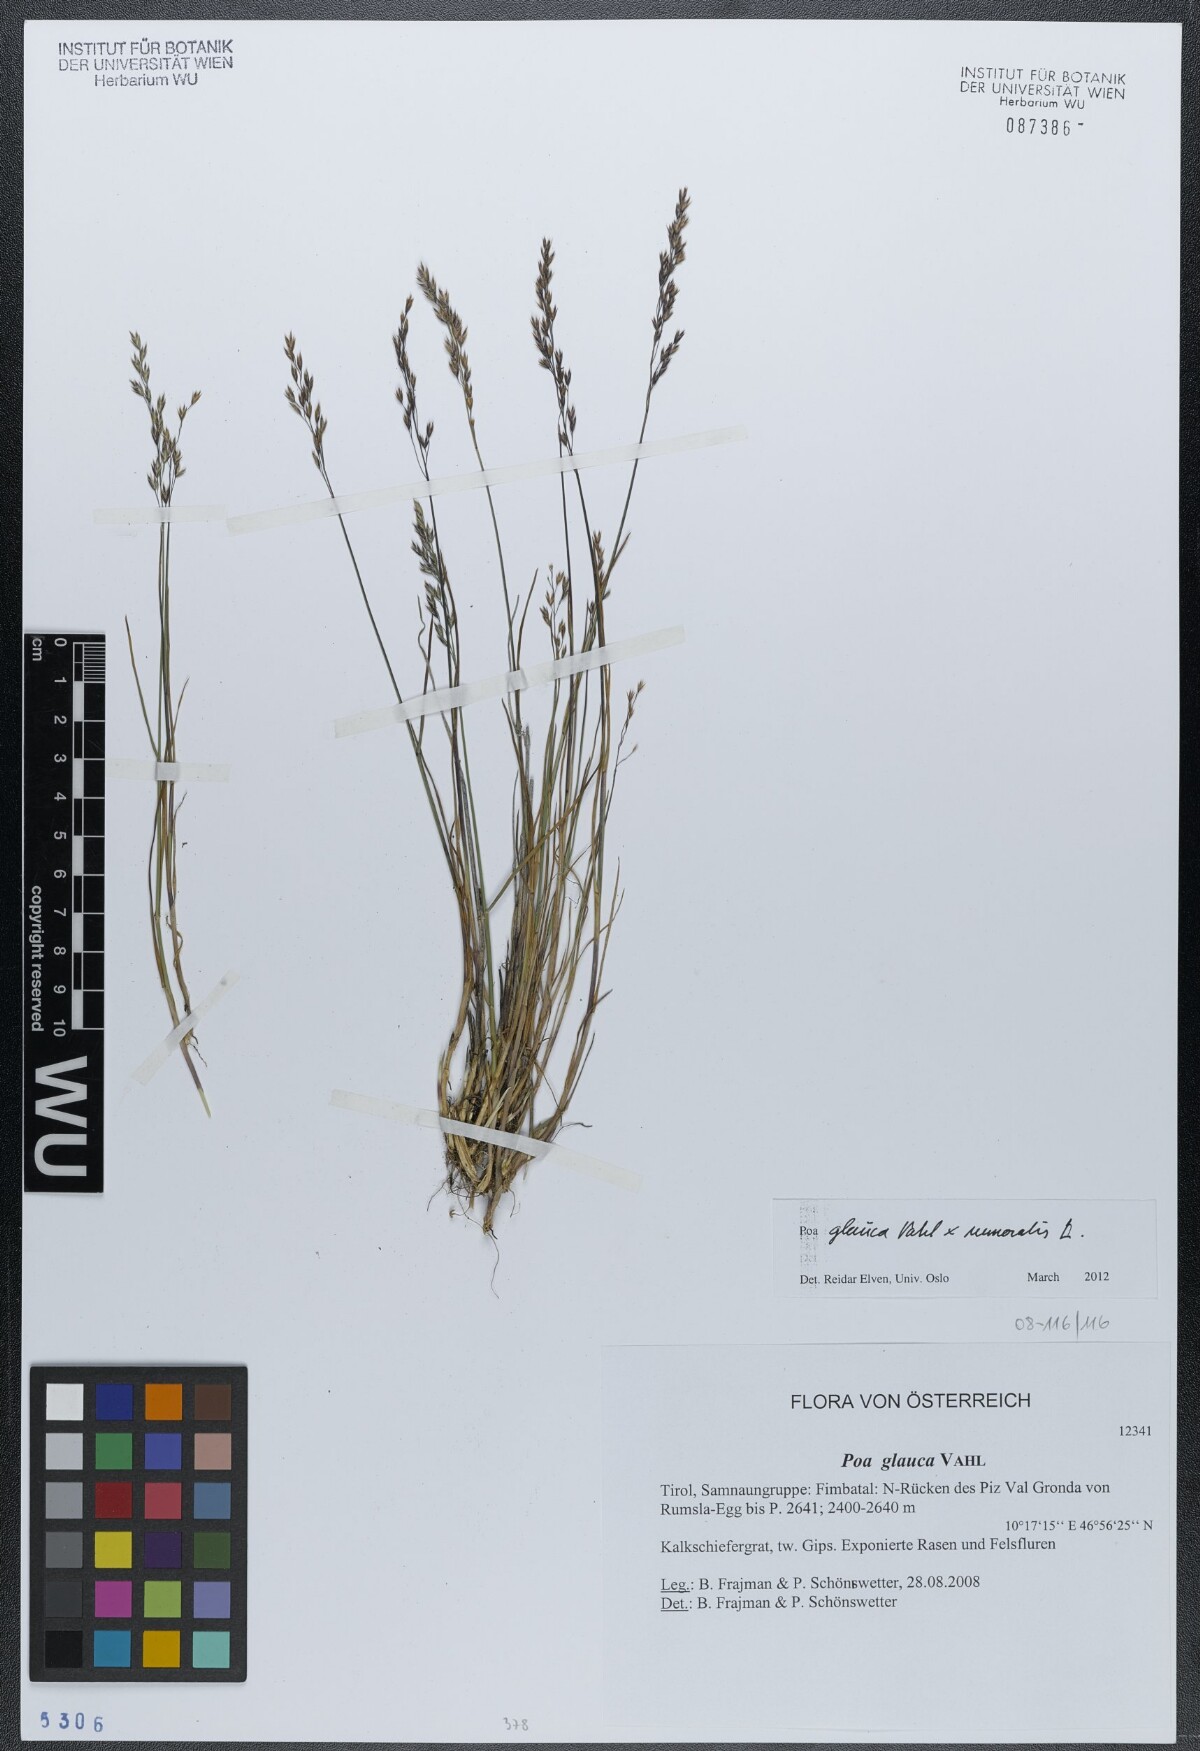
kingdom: Plantae
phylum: Tracheophyta
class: Liliopsida
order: Poales
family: Poaceae
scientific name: Poaceae
